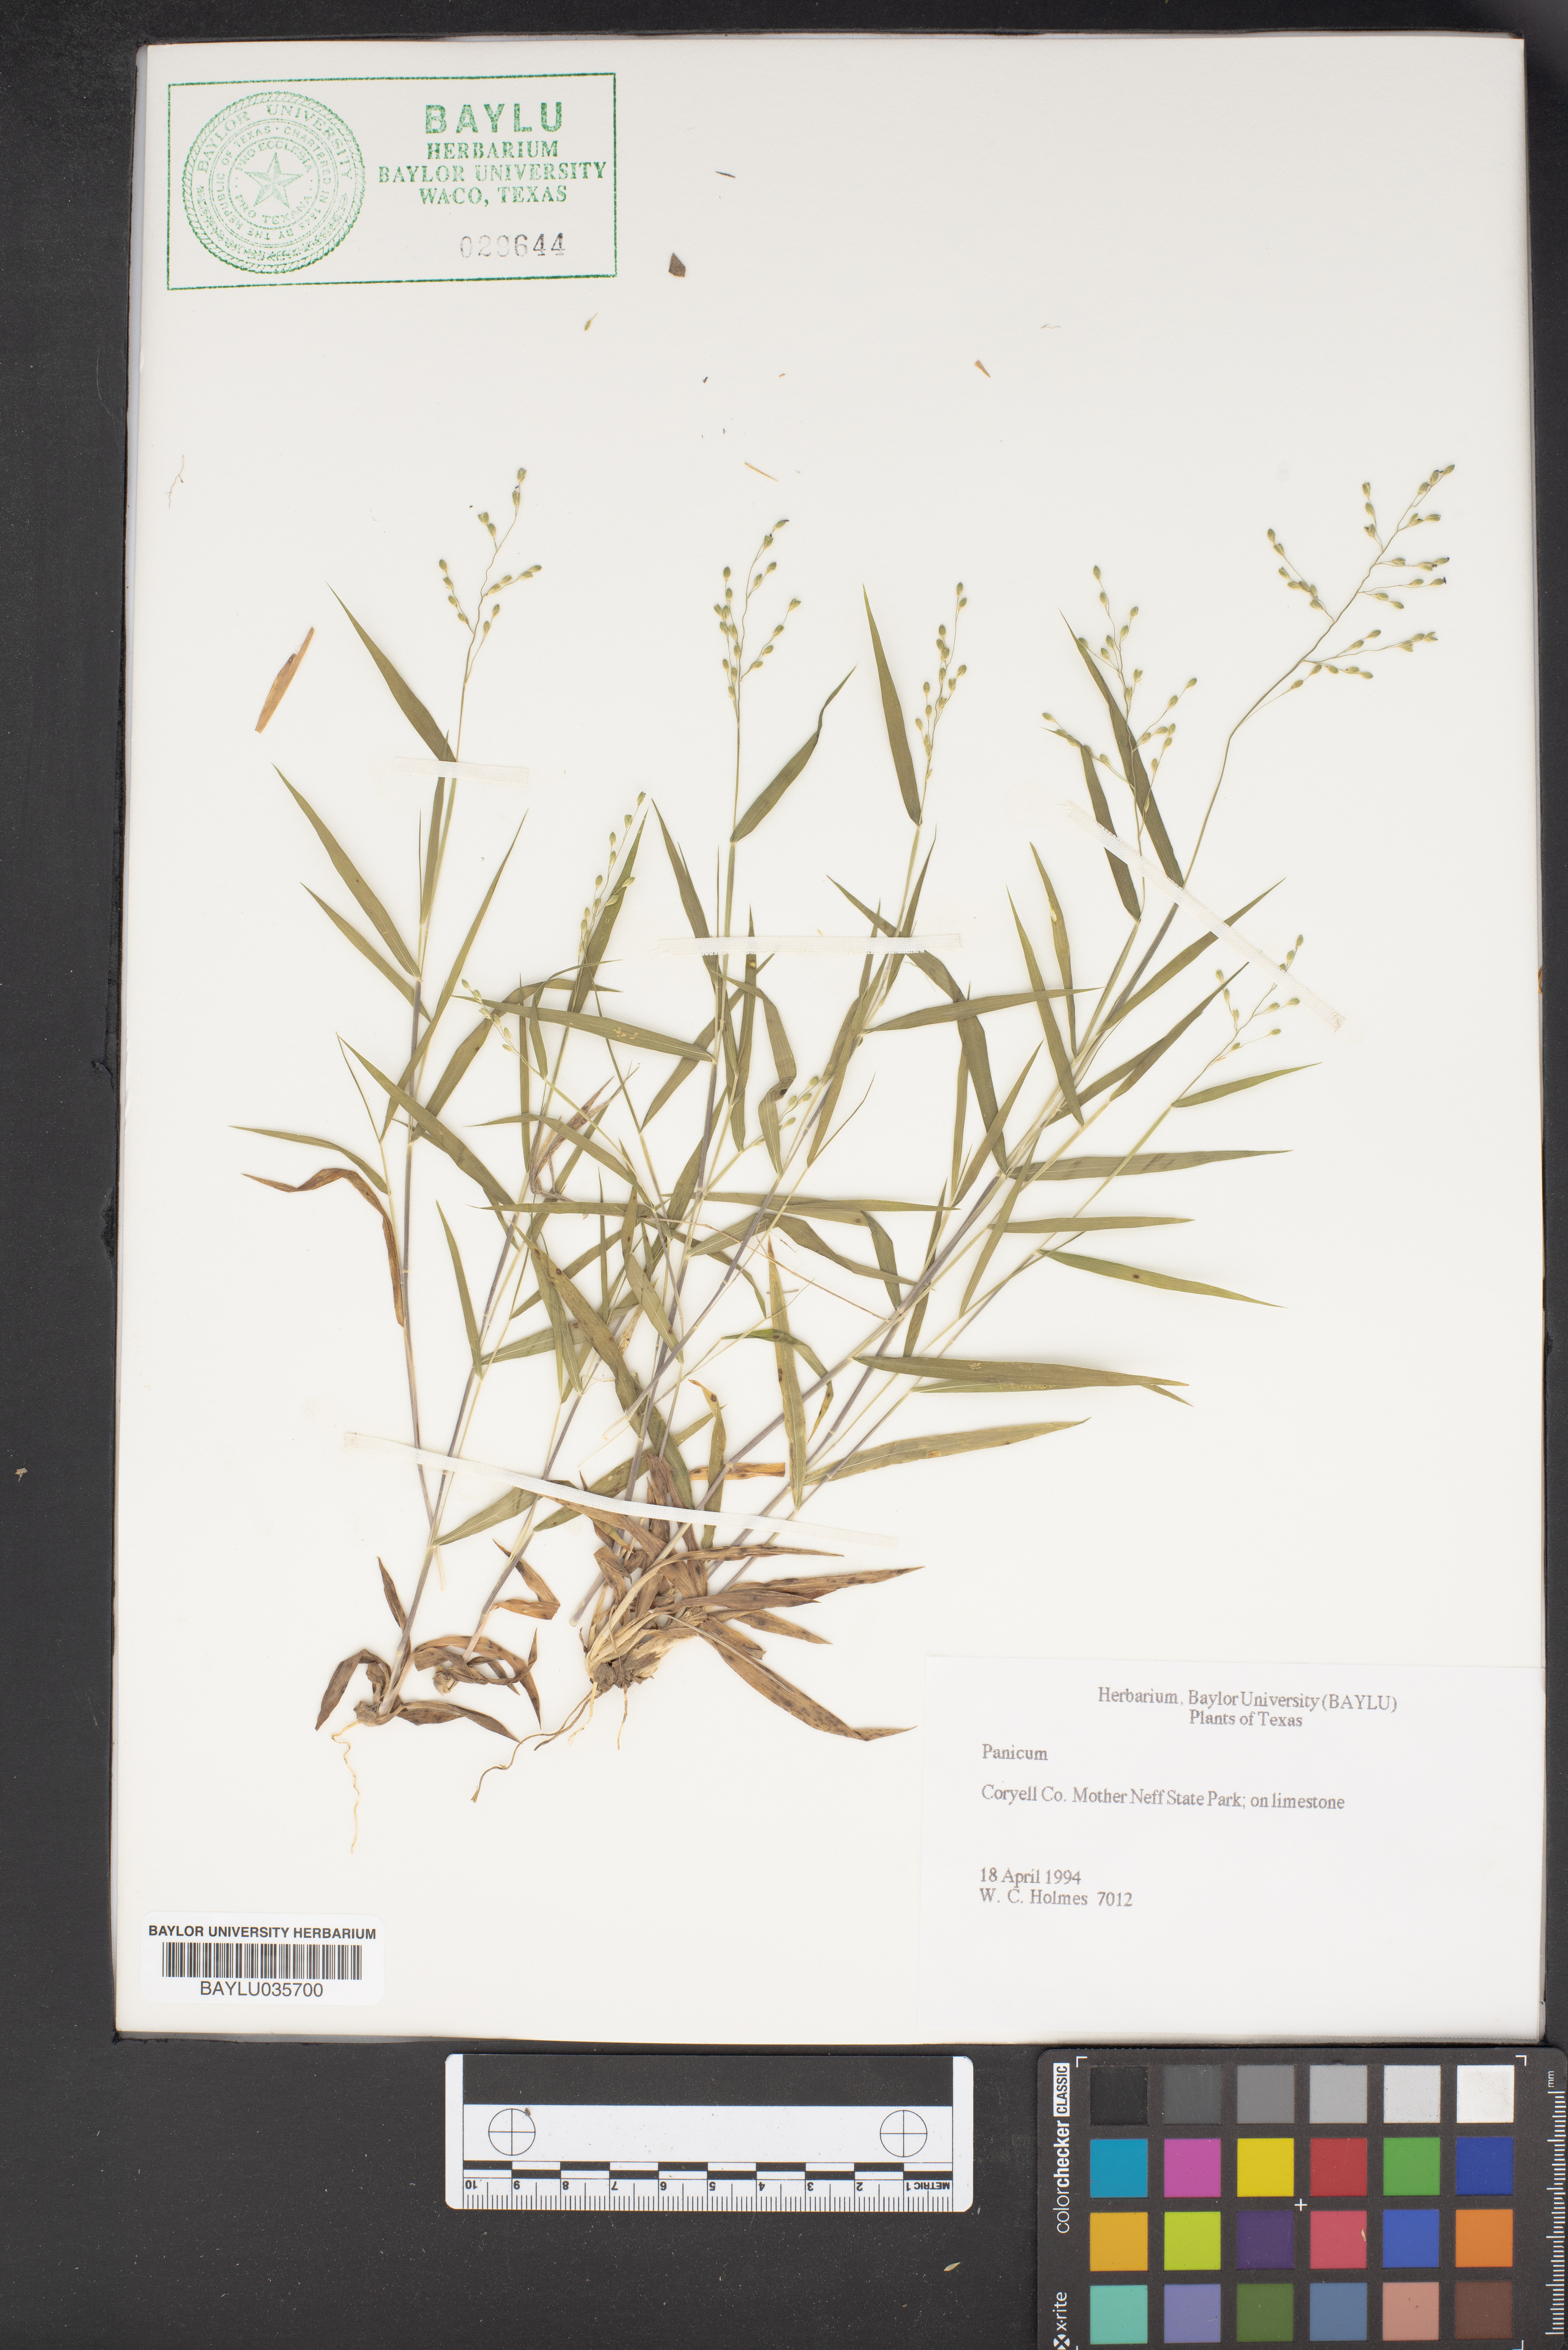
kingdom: Plantae
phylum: Tracheophyta
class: Liliopsida
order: Poales
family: Poaceae
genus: Panicum
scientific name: Panicum
